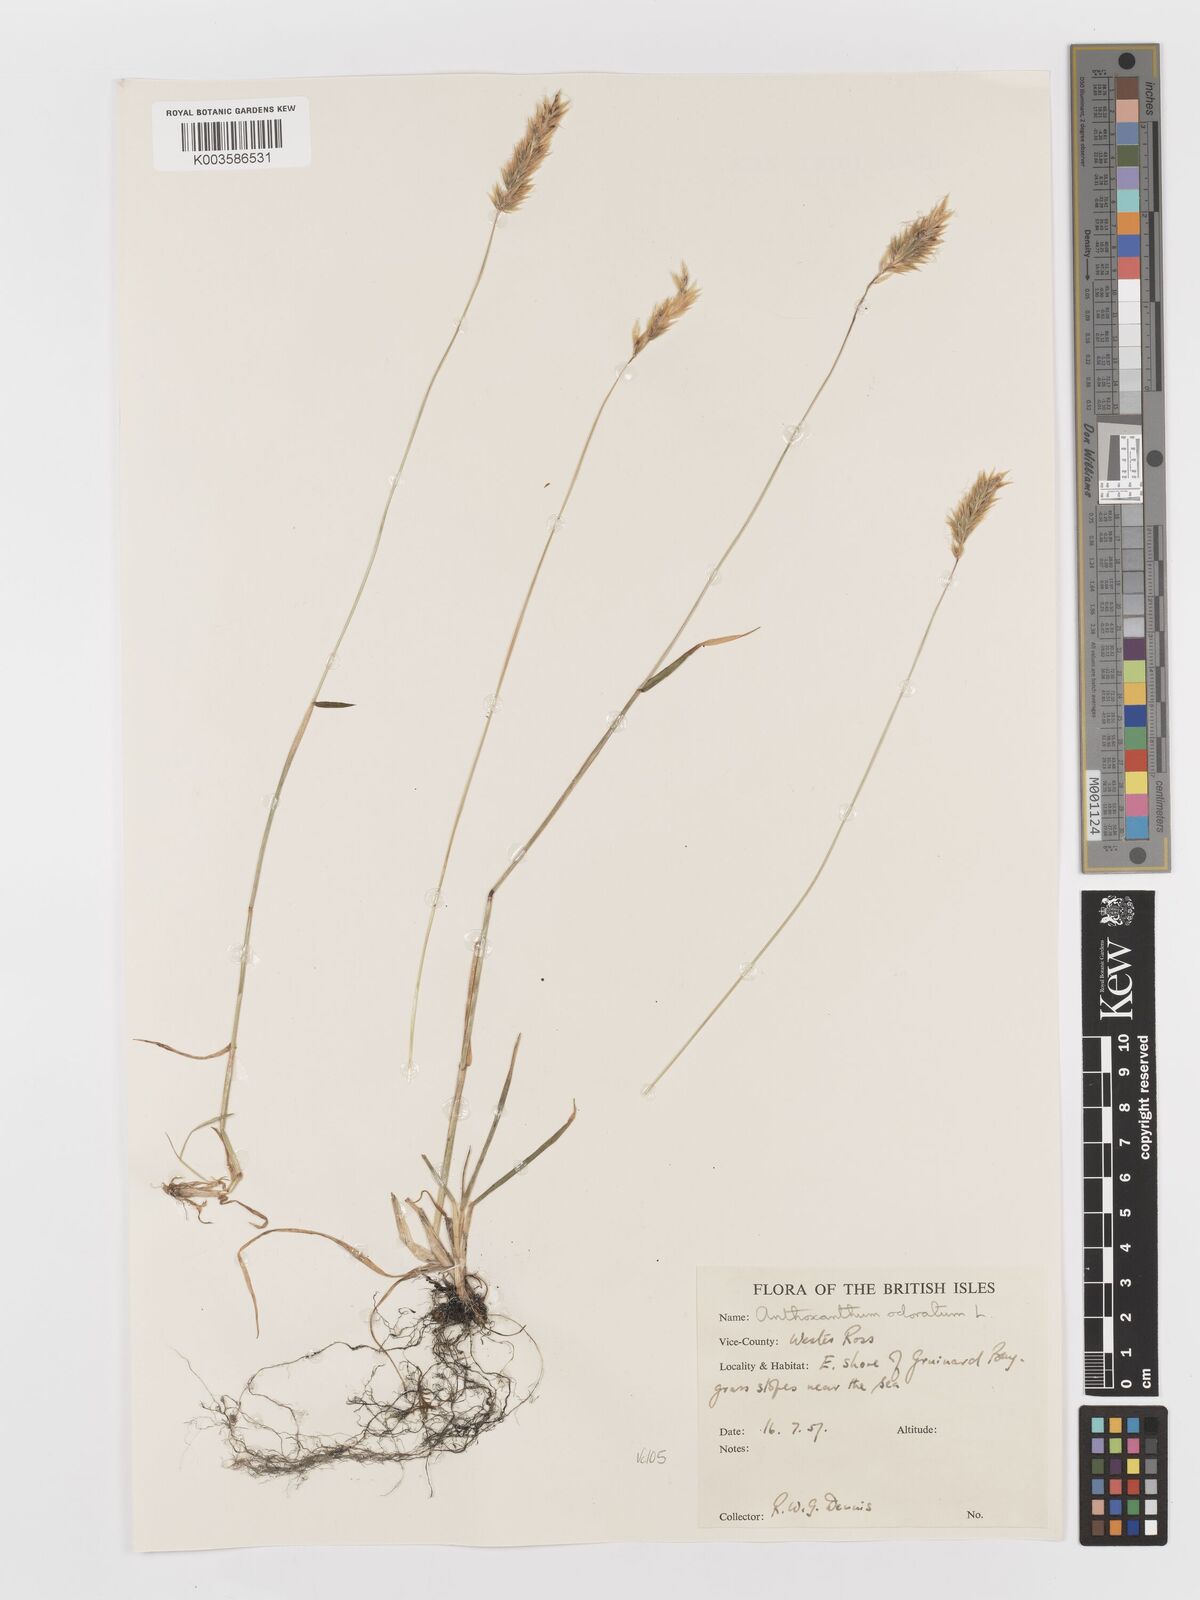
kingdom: Plantae
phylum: Tracheophyta
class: Liliopsida
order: Poales
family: Poaceae
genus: Anthoxanthum
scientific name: Anthoxanthum odoratum
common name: Sweet vernalgrass
